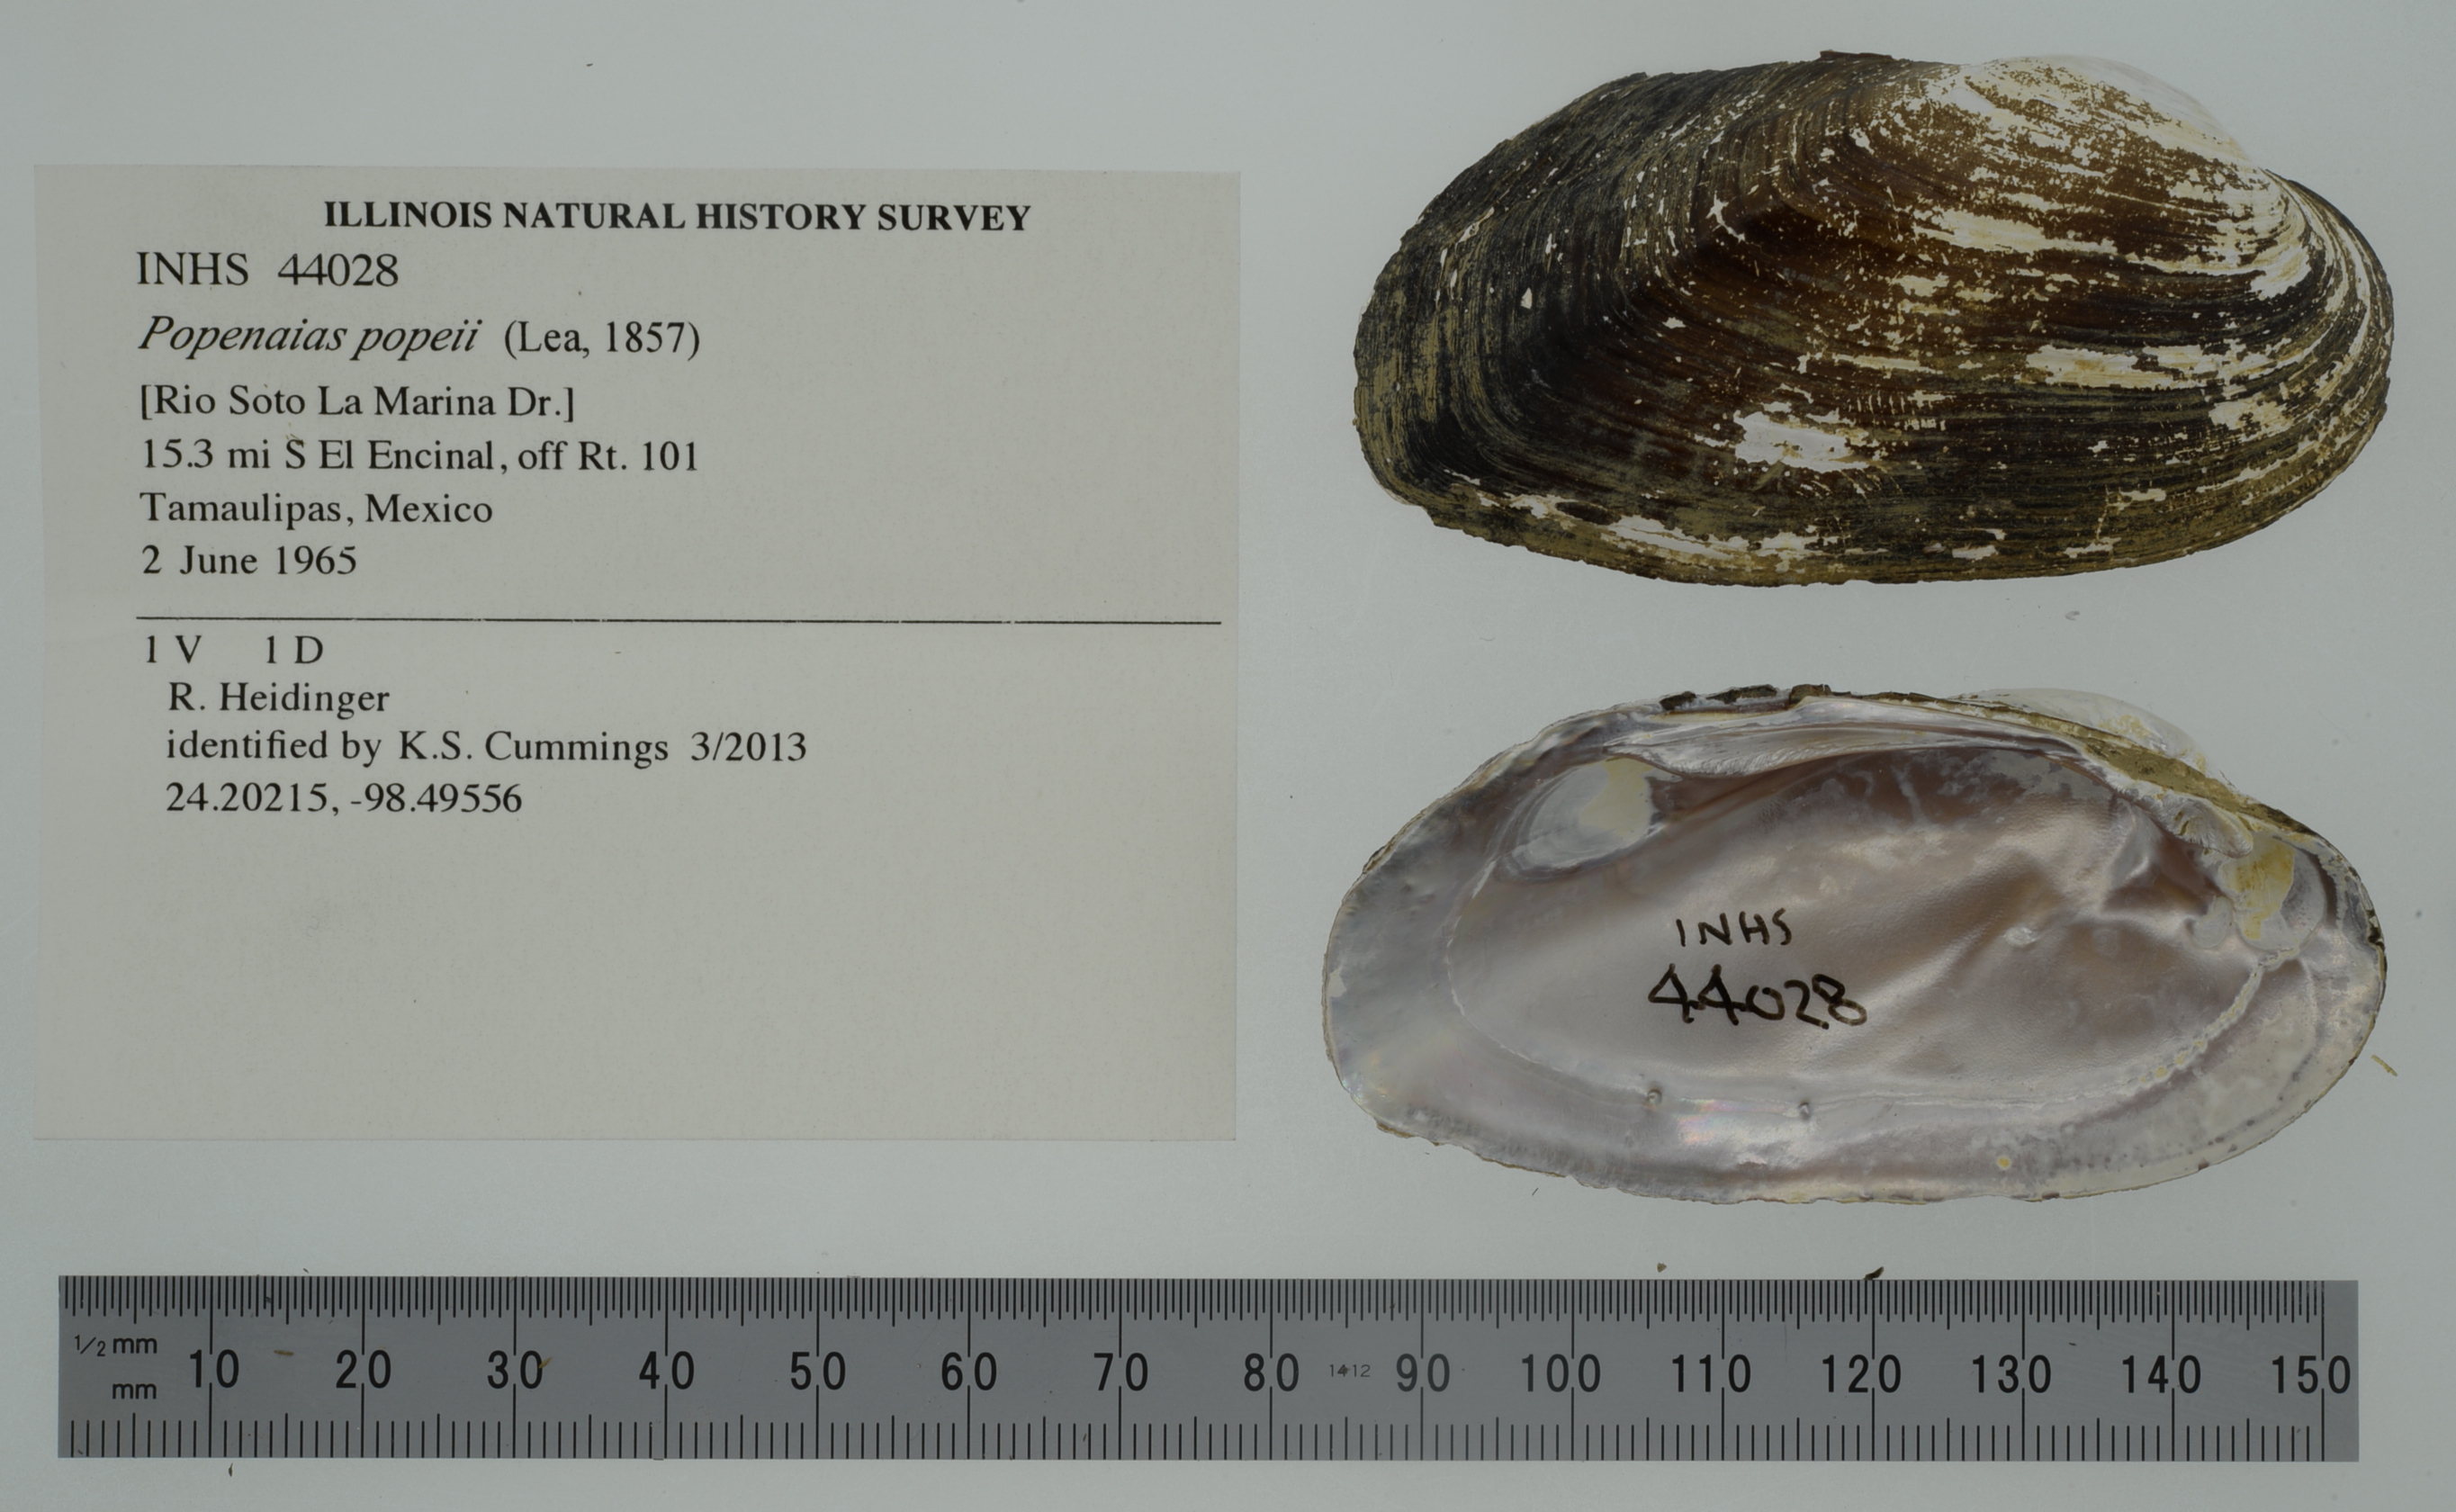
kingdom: Animalia
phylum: Mollusca
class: Bivalvia
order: Unionida
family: Unionidae
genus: Psoronaias
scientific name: Psoronaias
